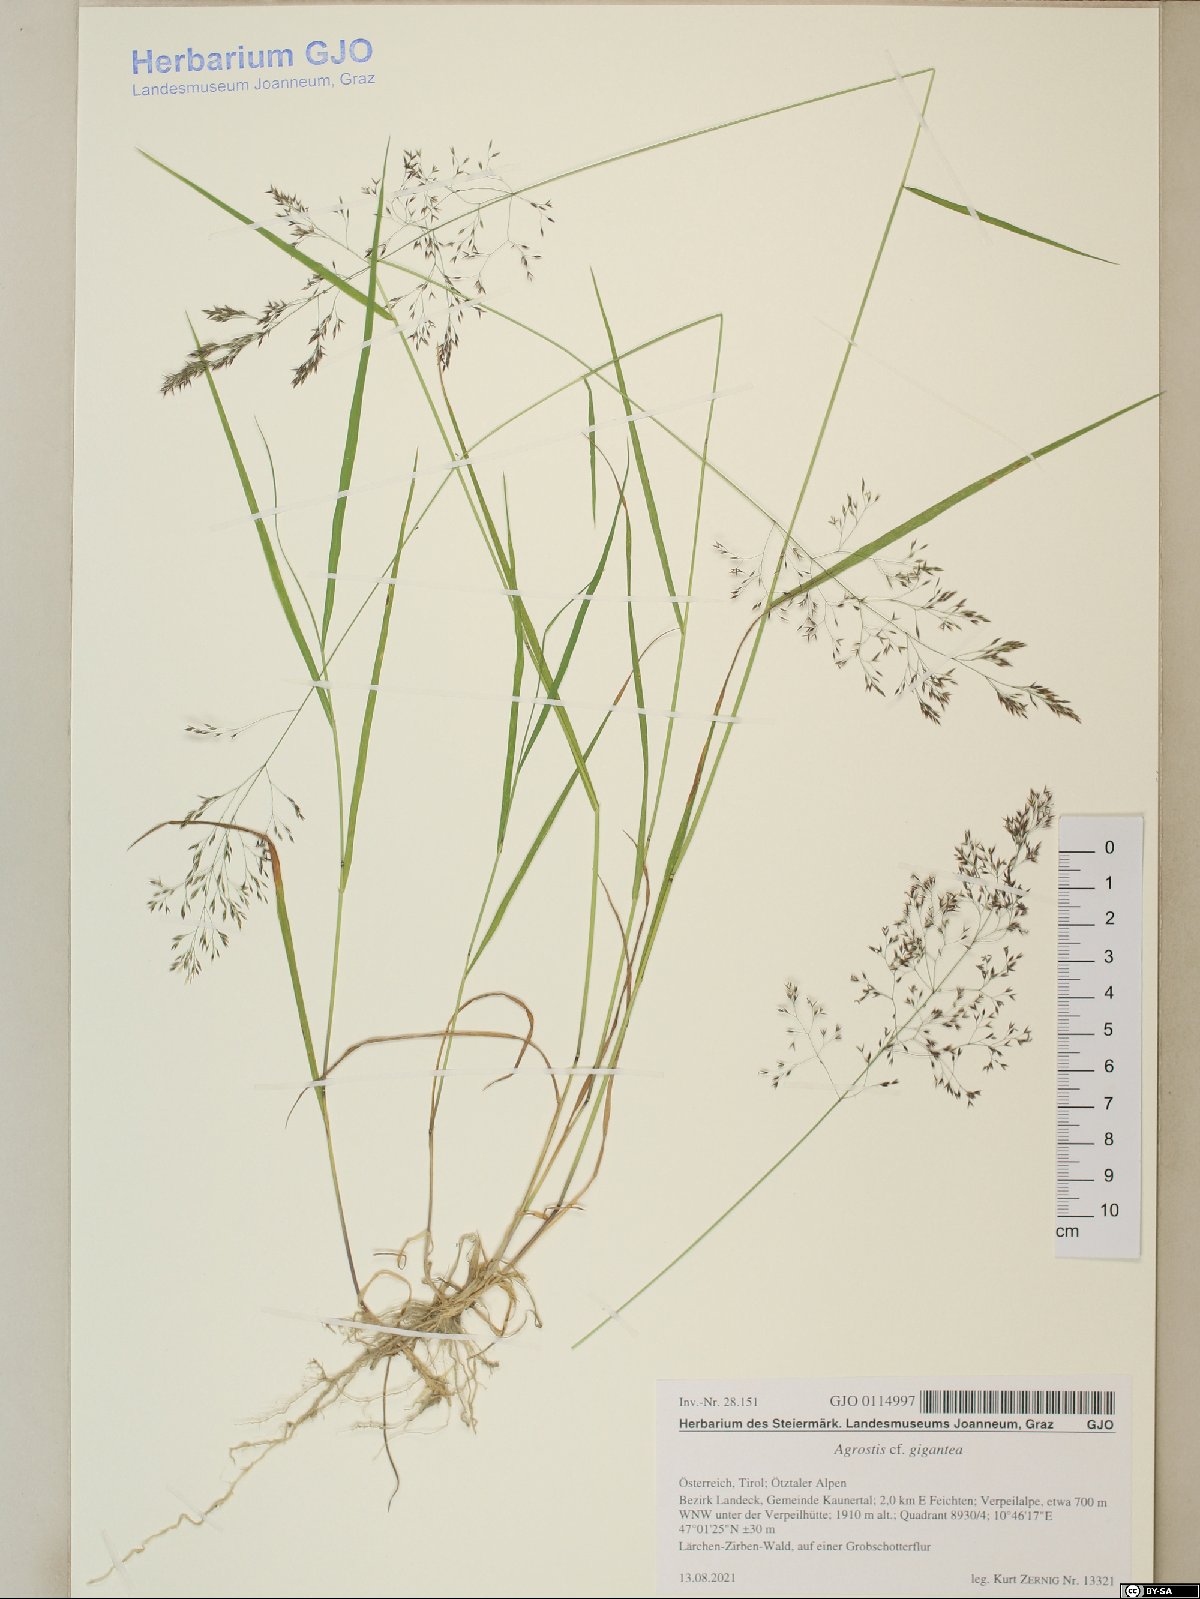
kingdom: Plantae
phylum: Tracheophyta
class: Liliopsida
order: Poales
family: Poaceae
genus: Agrostis
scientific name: Agrostis gigantea
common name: Black bent
